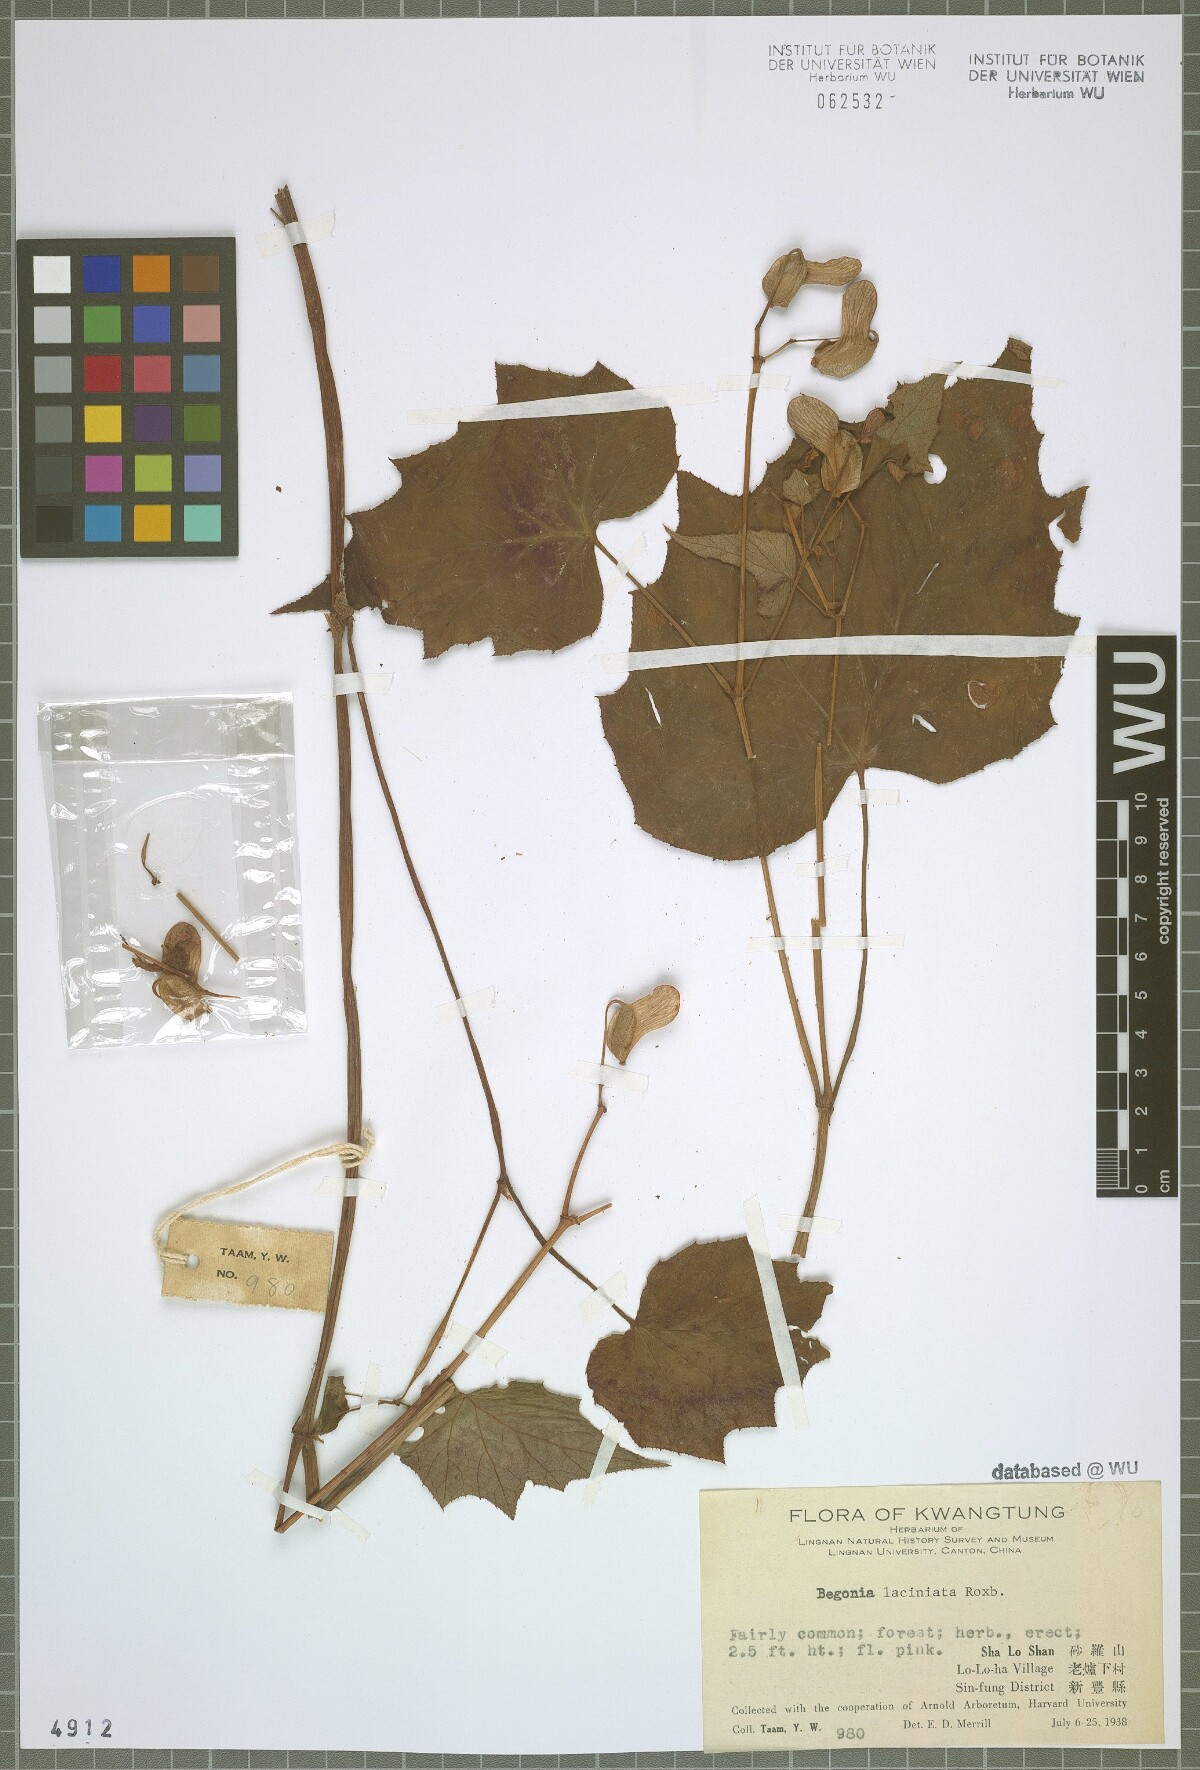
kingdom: Plantae
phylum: Tracheophyta
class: Magnoliopsida
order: Cucurbitales
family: Begoniaceae
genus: Begonia
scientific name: Begonia palmata
